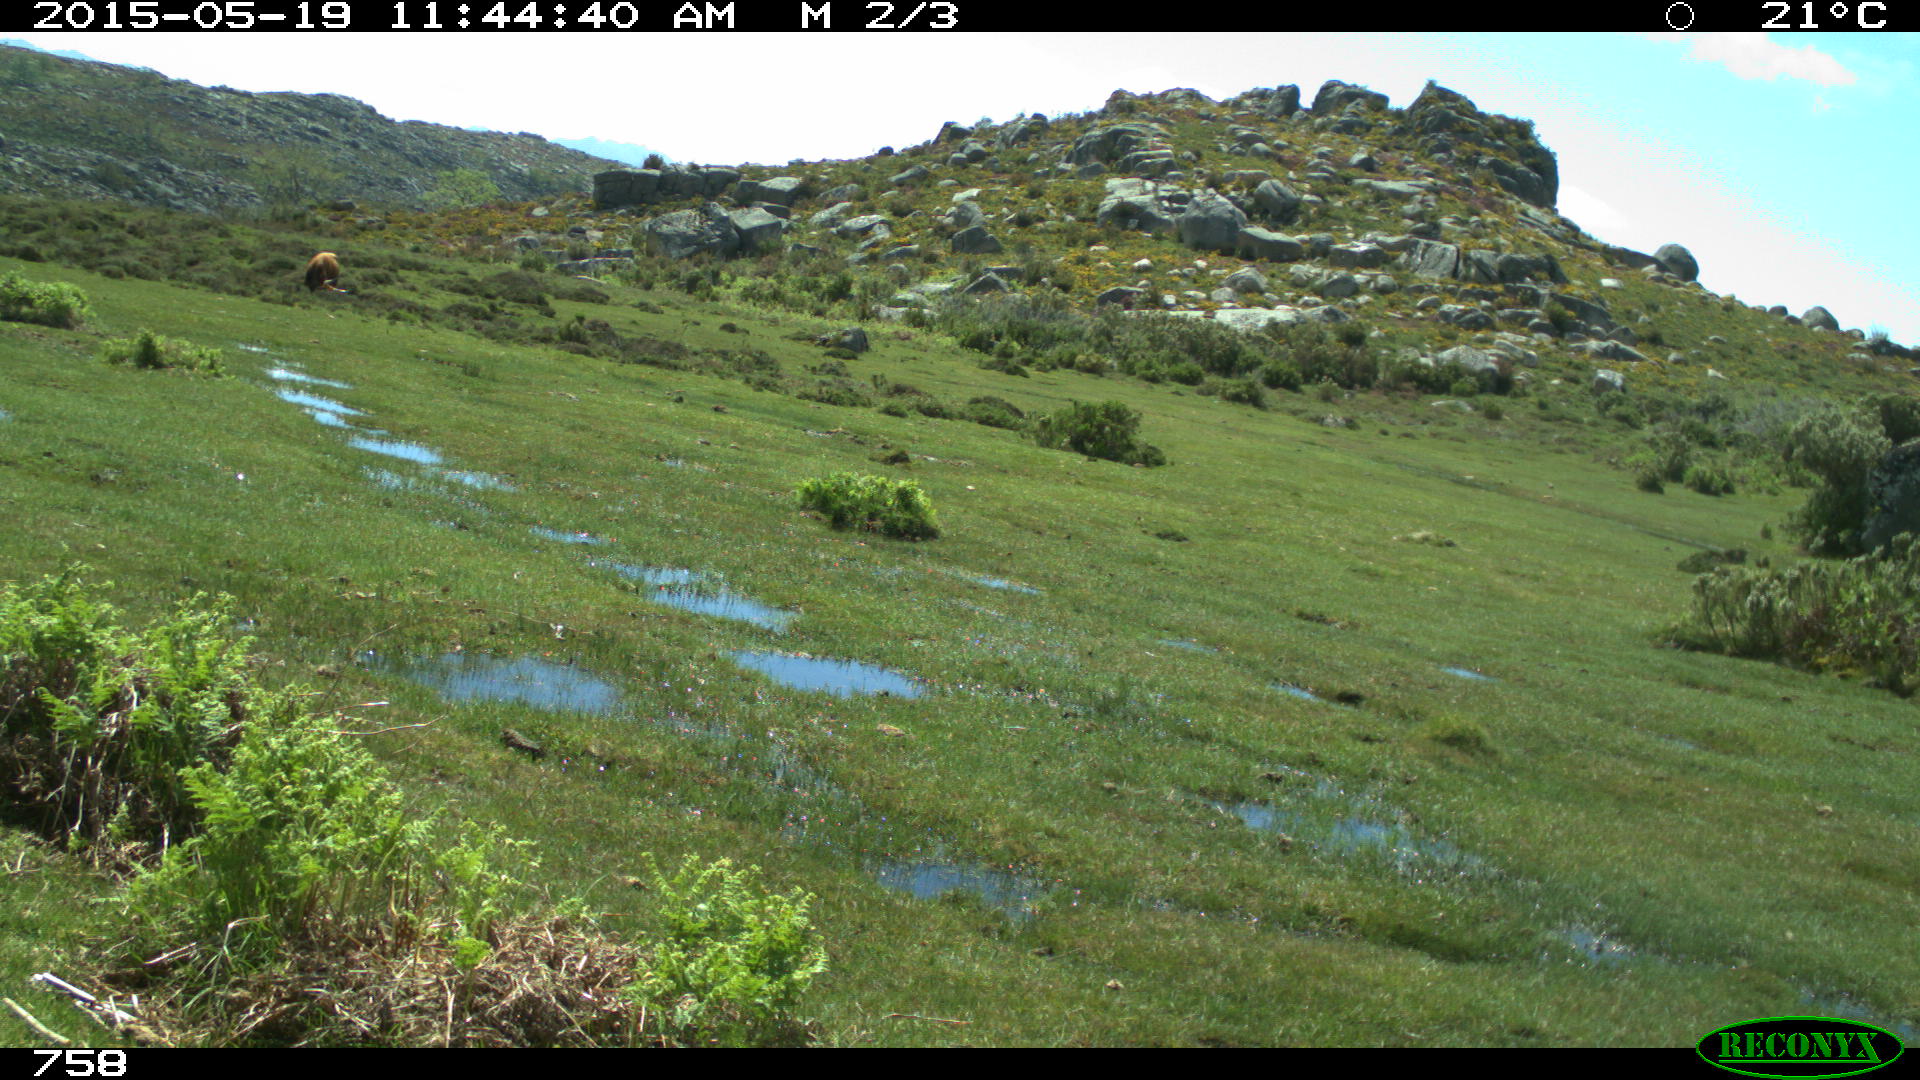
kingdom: Animalia
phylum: Chordata
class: Mammalia
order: Artiodactyla
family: Bovidae
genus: Bos
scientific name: Bos taurus
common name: Domesticated cattle
